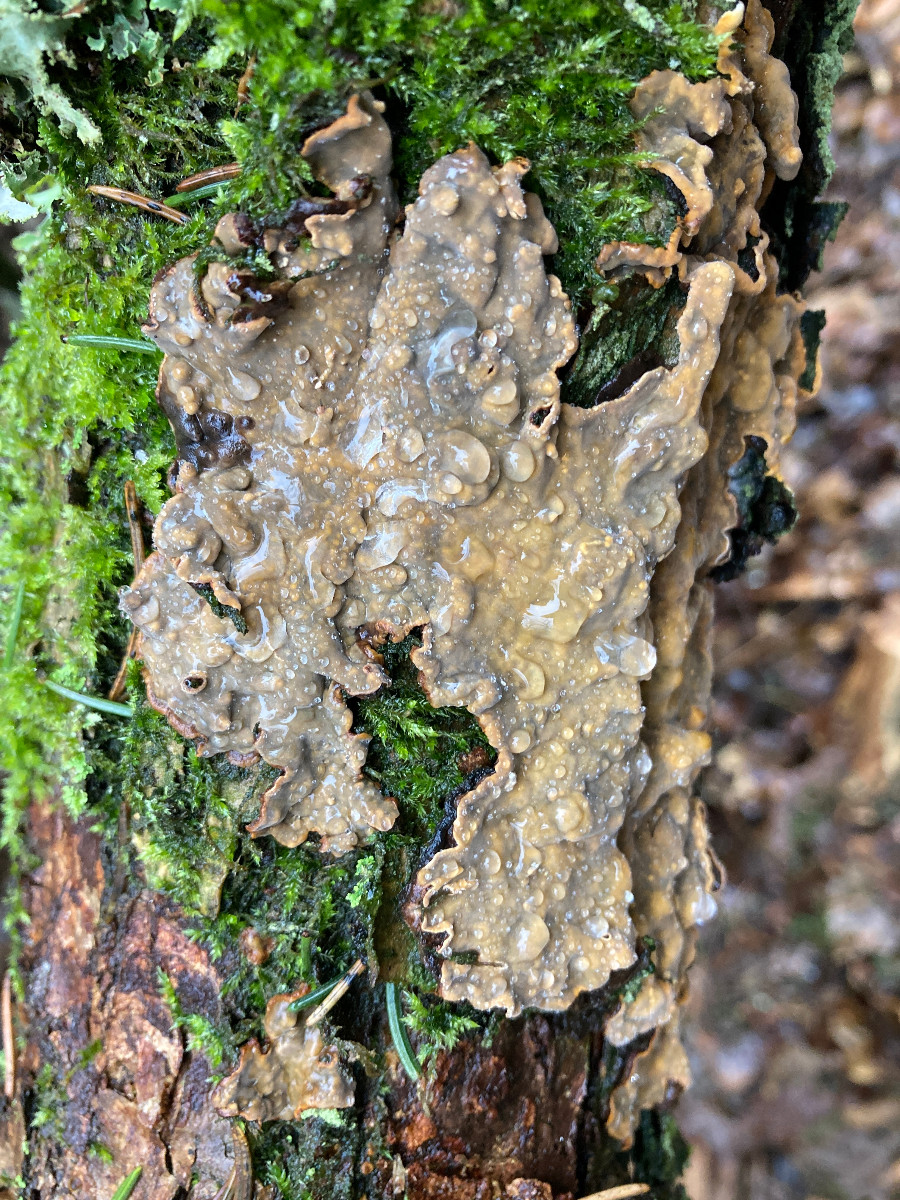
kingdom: Fungi
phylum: Basidiomycota
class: Agaricomycetes
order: Russulales
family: Stereaceae
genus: Stereum
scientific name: Stereum rugosum
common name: rynket lædersvamp
